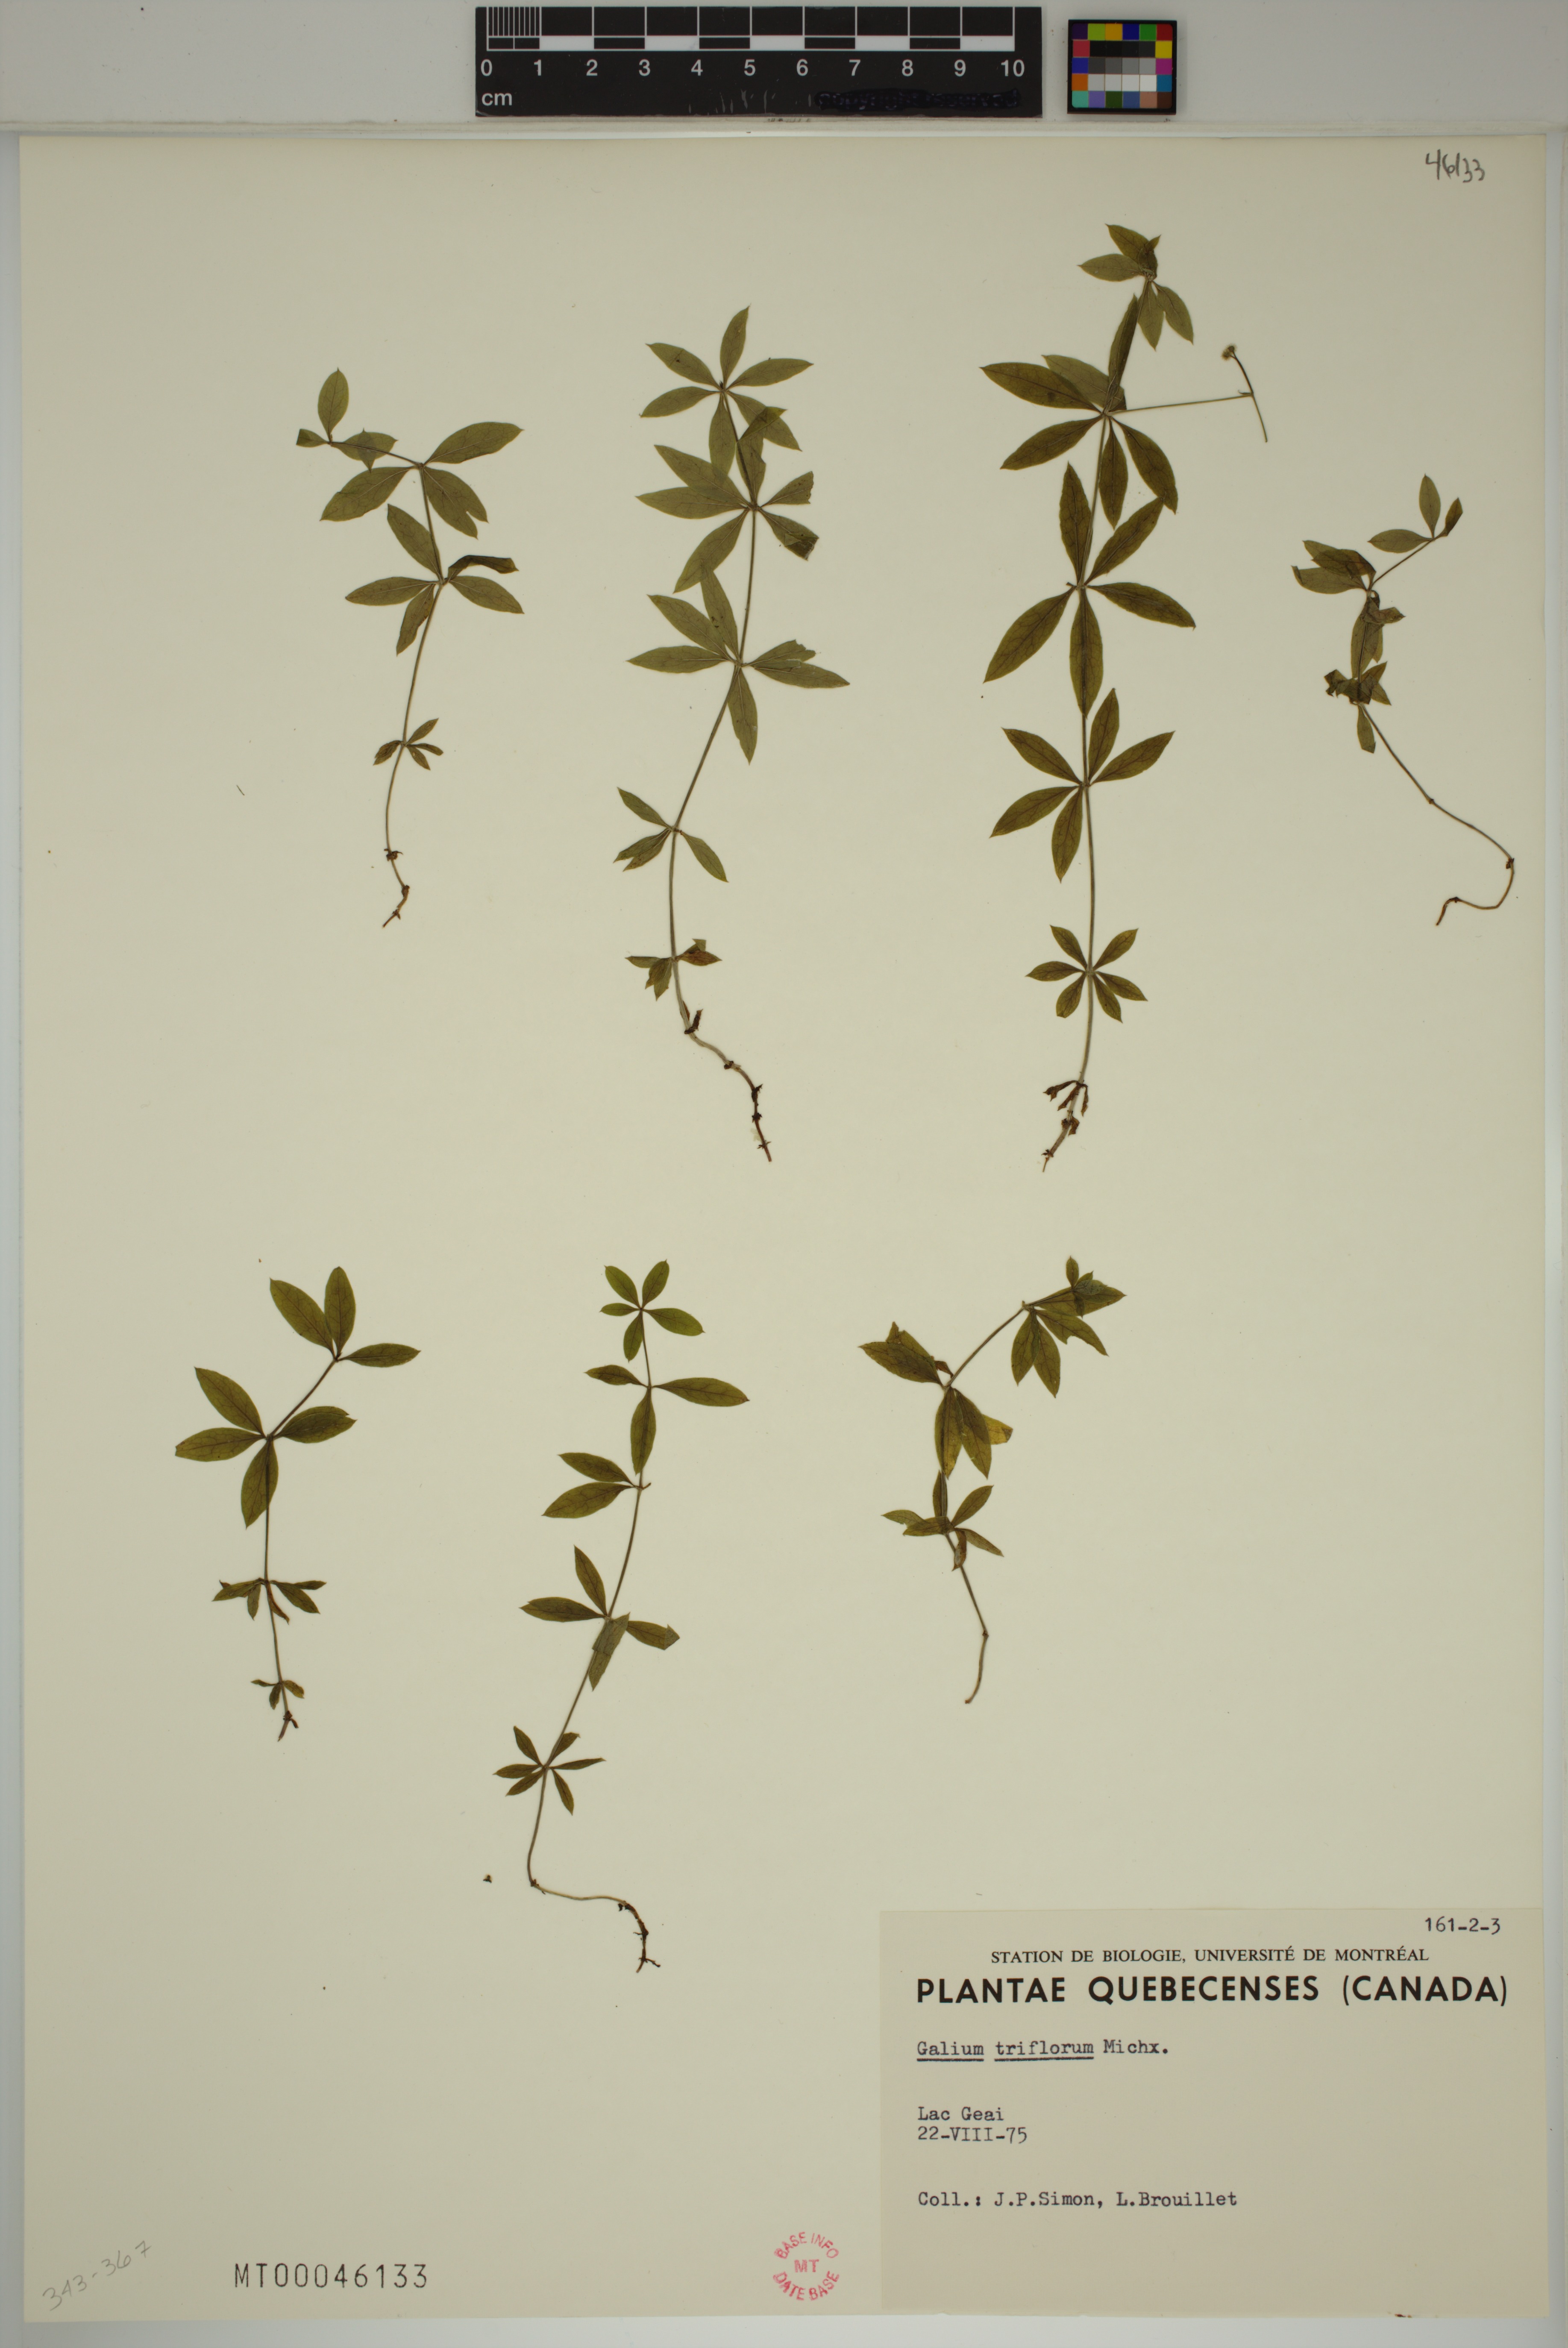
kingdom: Plantae
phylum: Tracheophyta
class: Magnoliopsida
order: Gentianales
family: Rubiaceae
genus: Galium
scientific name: Galium triflorum
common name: Fragrant bedstraw
